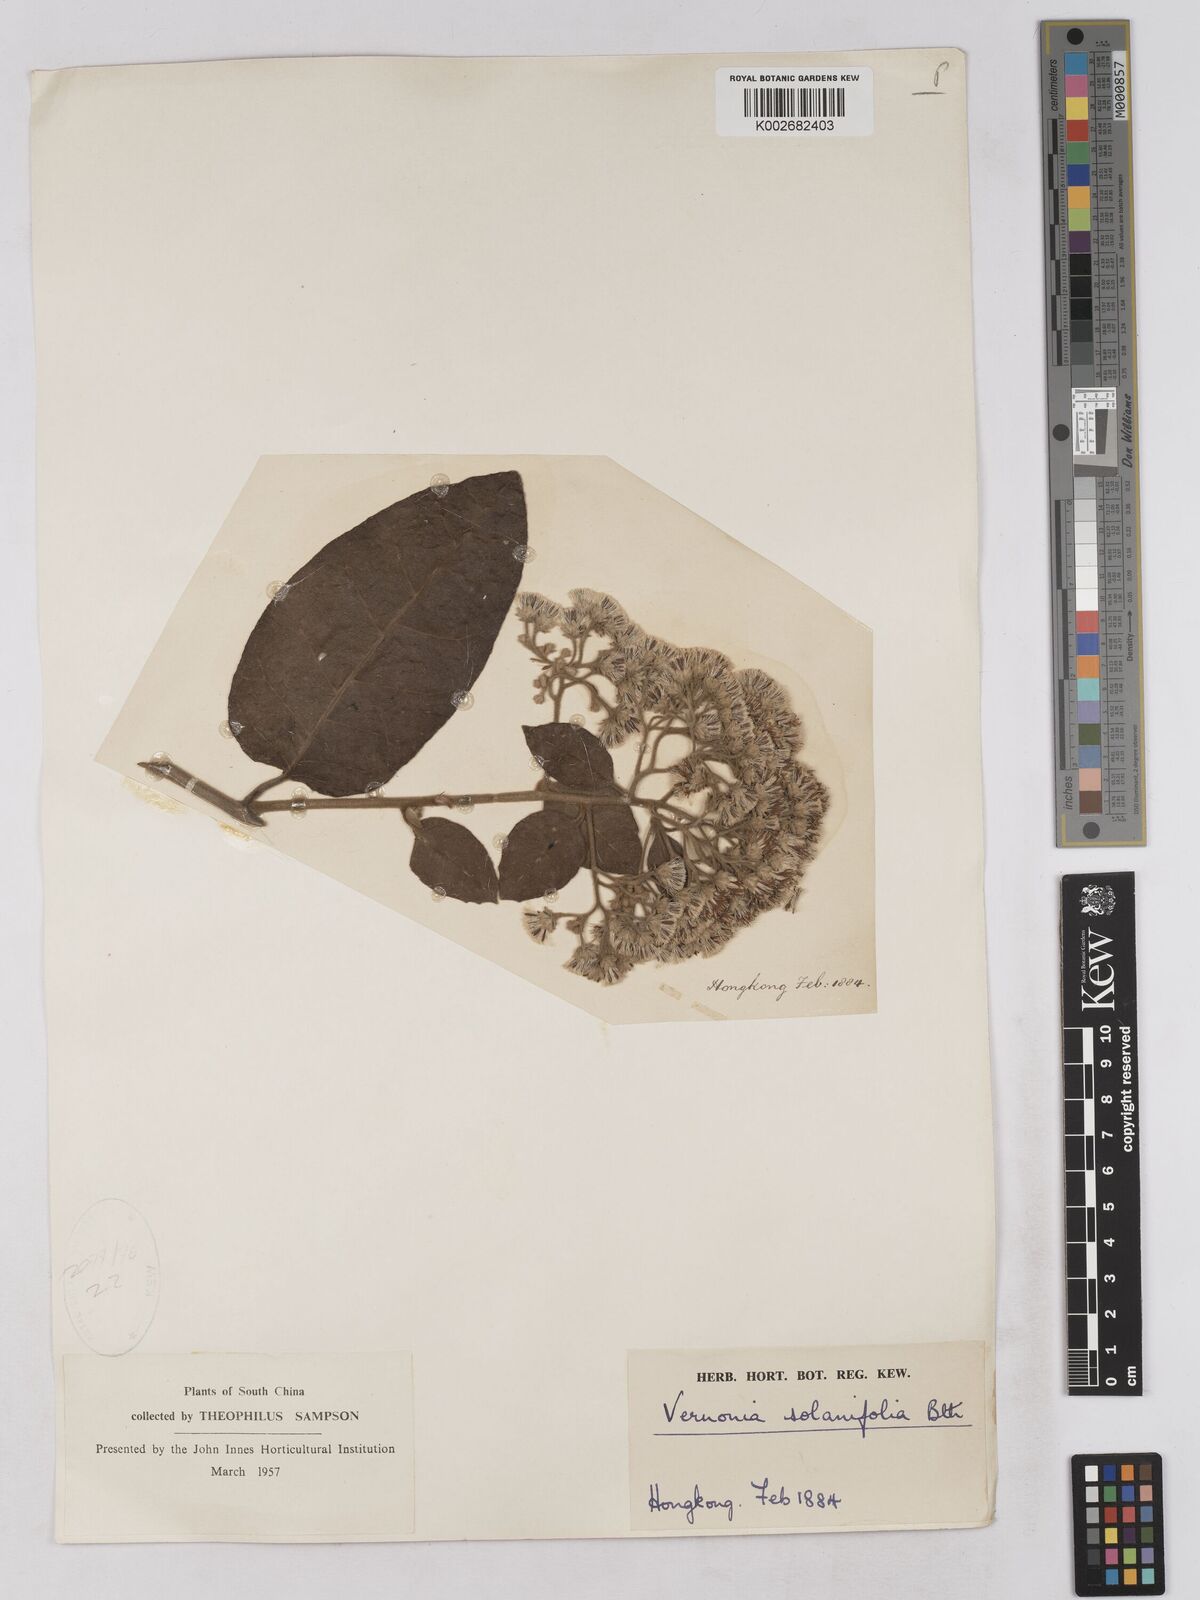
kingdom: Plantae
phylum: Tracheophyta
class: Magnoliopsida
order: Asterales
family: Asteraceae
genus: Strobocalyx
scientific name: Strobocalyx solanifolia
